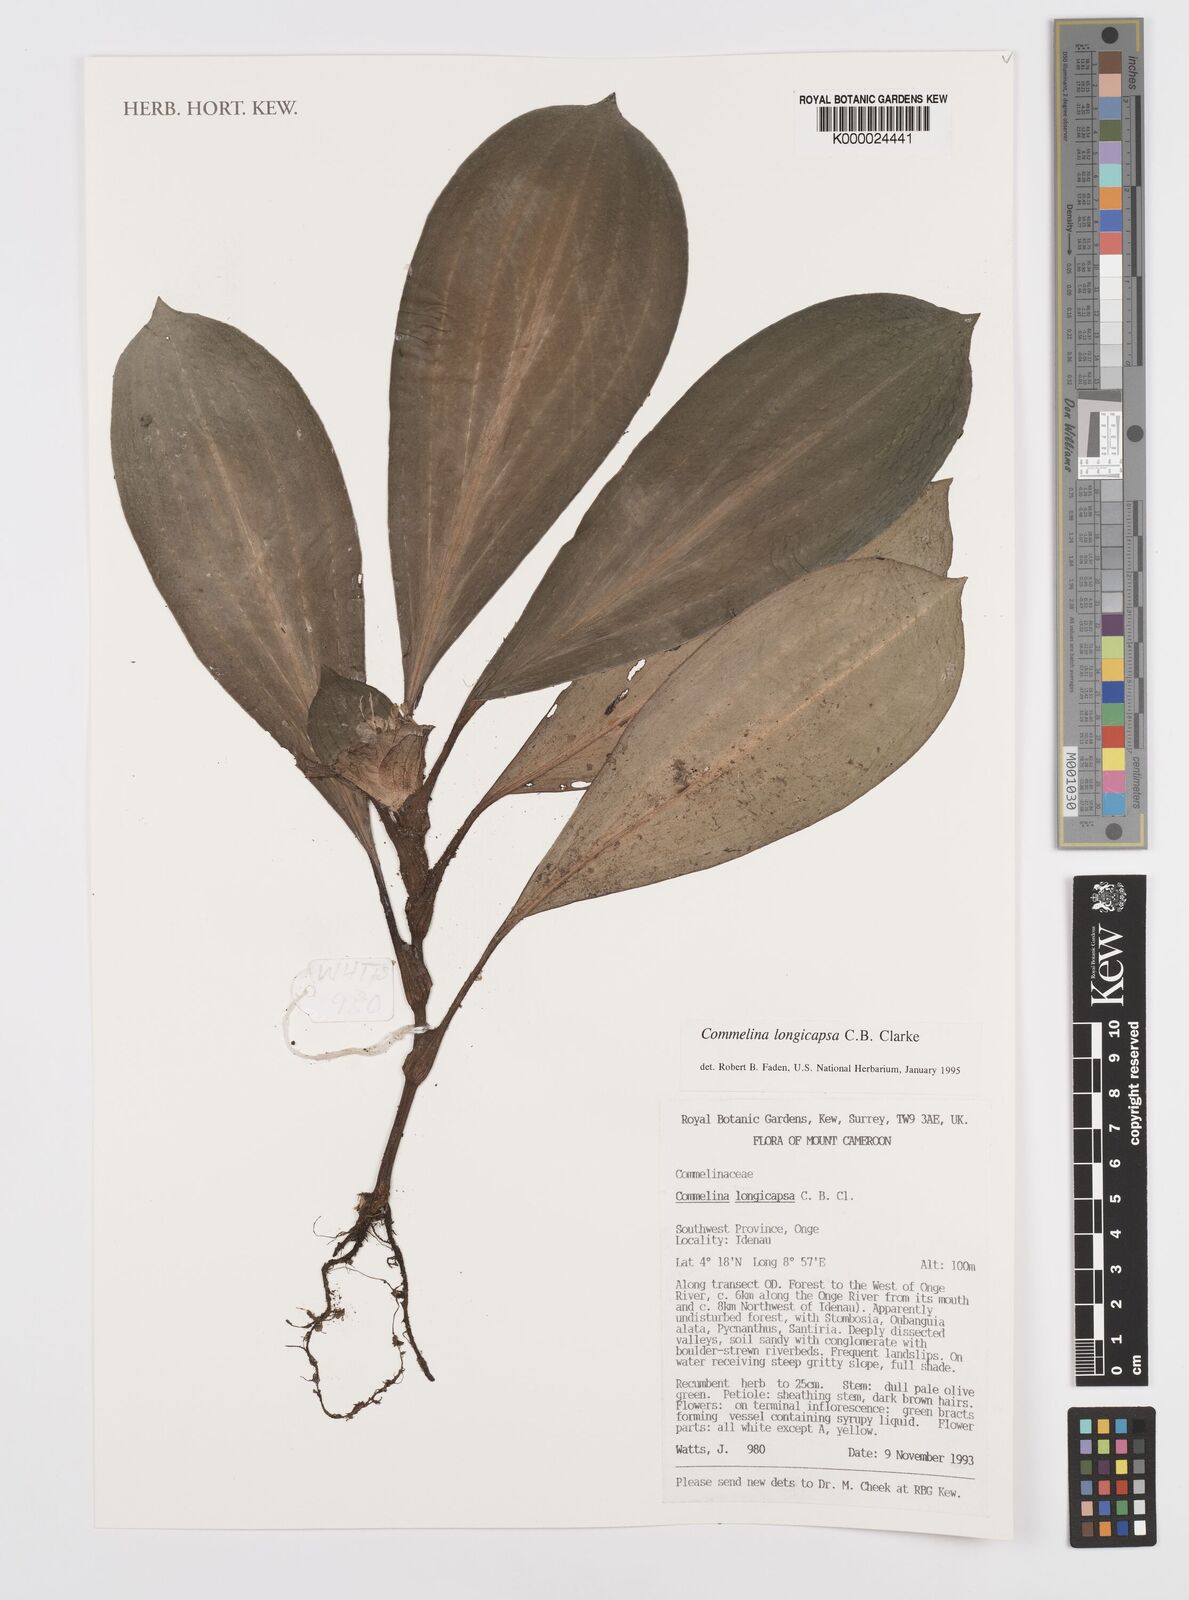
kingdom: Plantae
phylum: Tracheophyta
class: Liliopsida
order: Commelinales
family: Commelinaceae
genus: Commelina
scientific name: Commelina longicapsa
